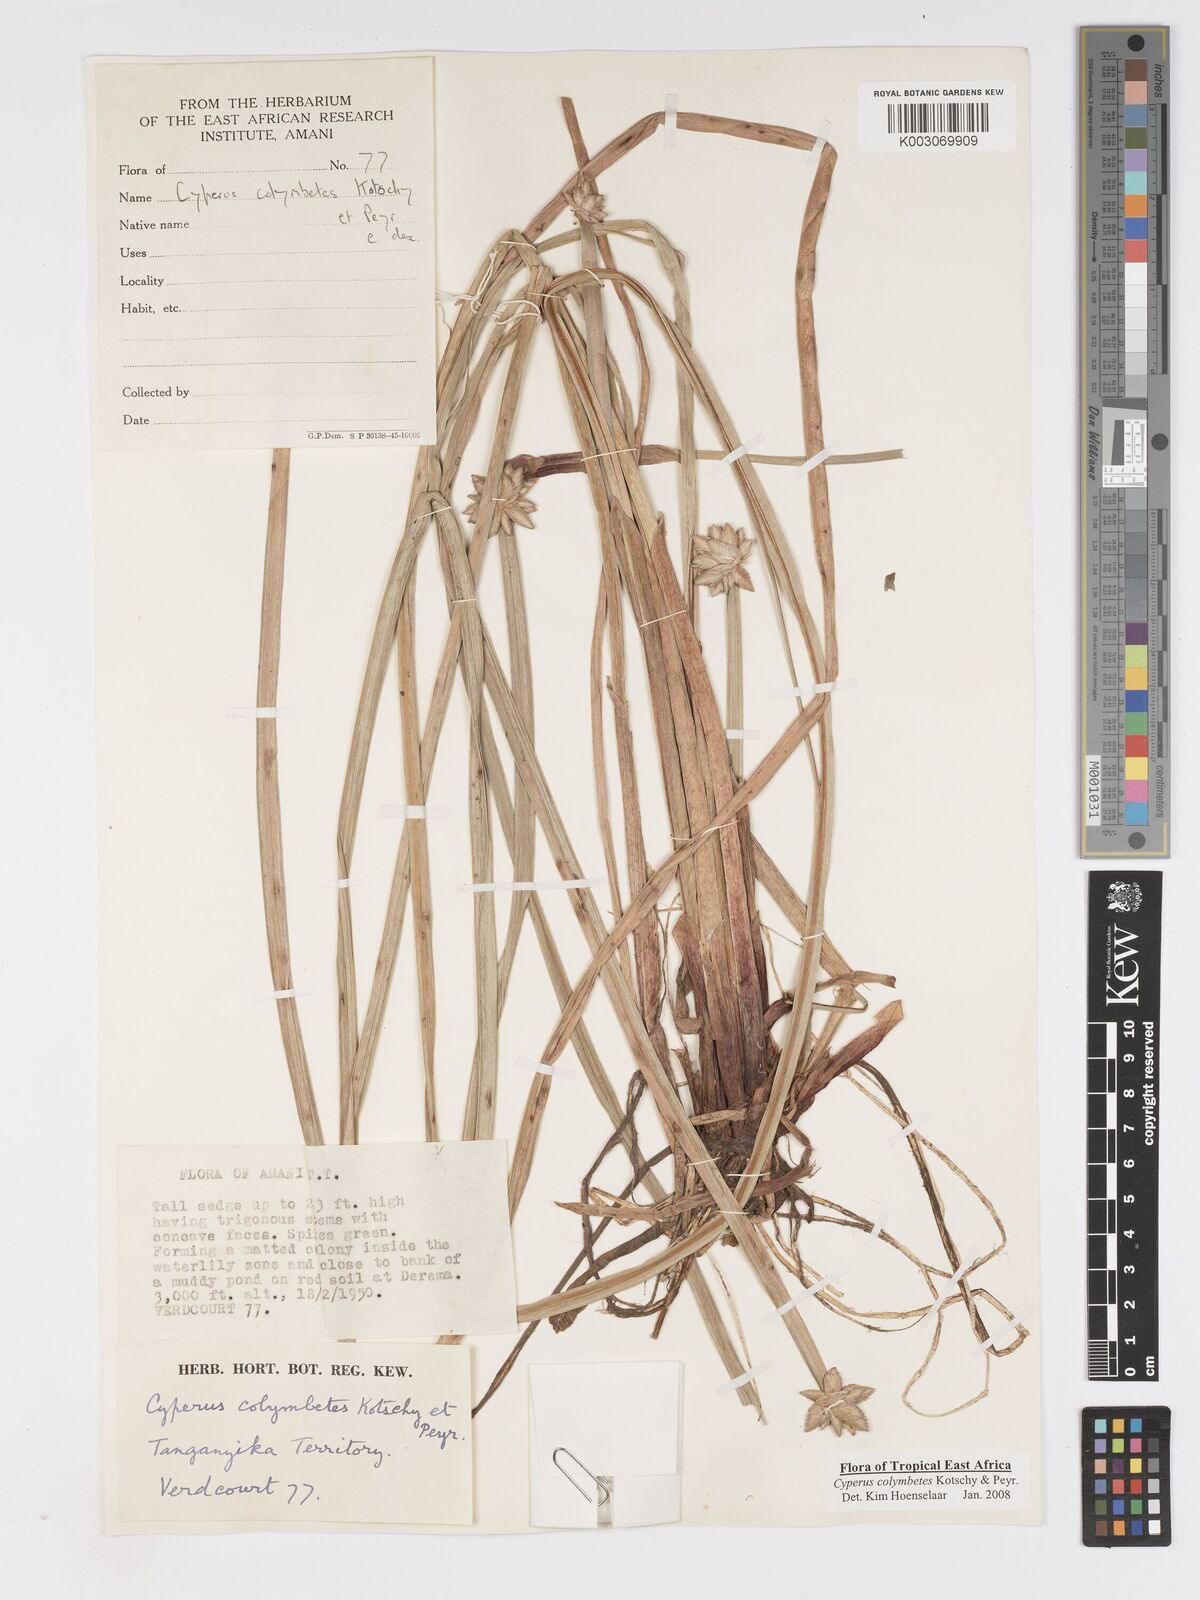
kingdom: Plantae
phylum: Tracheophyta
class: Liliopsida
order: Poales
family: Cyperaceae
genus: Cyperus
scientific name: Cyperus colymbetes
